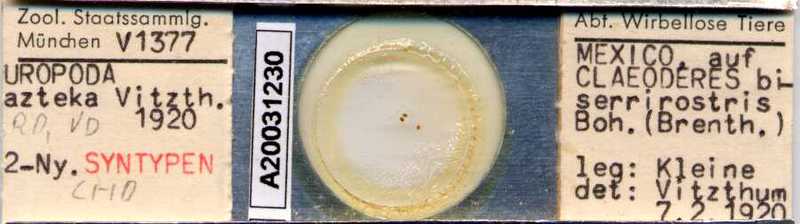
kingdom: Animalia
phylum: Arthropoda
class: Arachnida
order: Mesostigmata
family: Uropodidae
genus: Uropoda
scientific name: Uropoda
